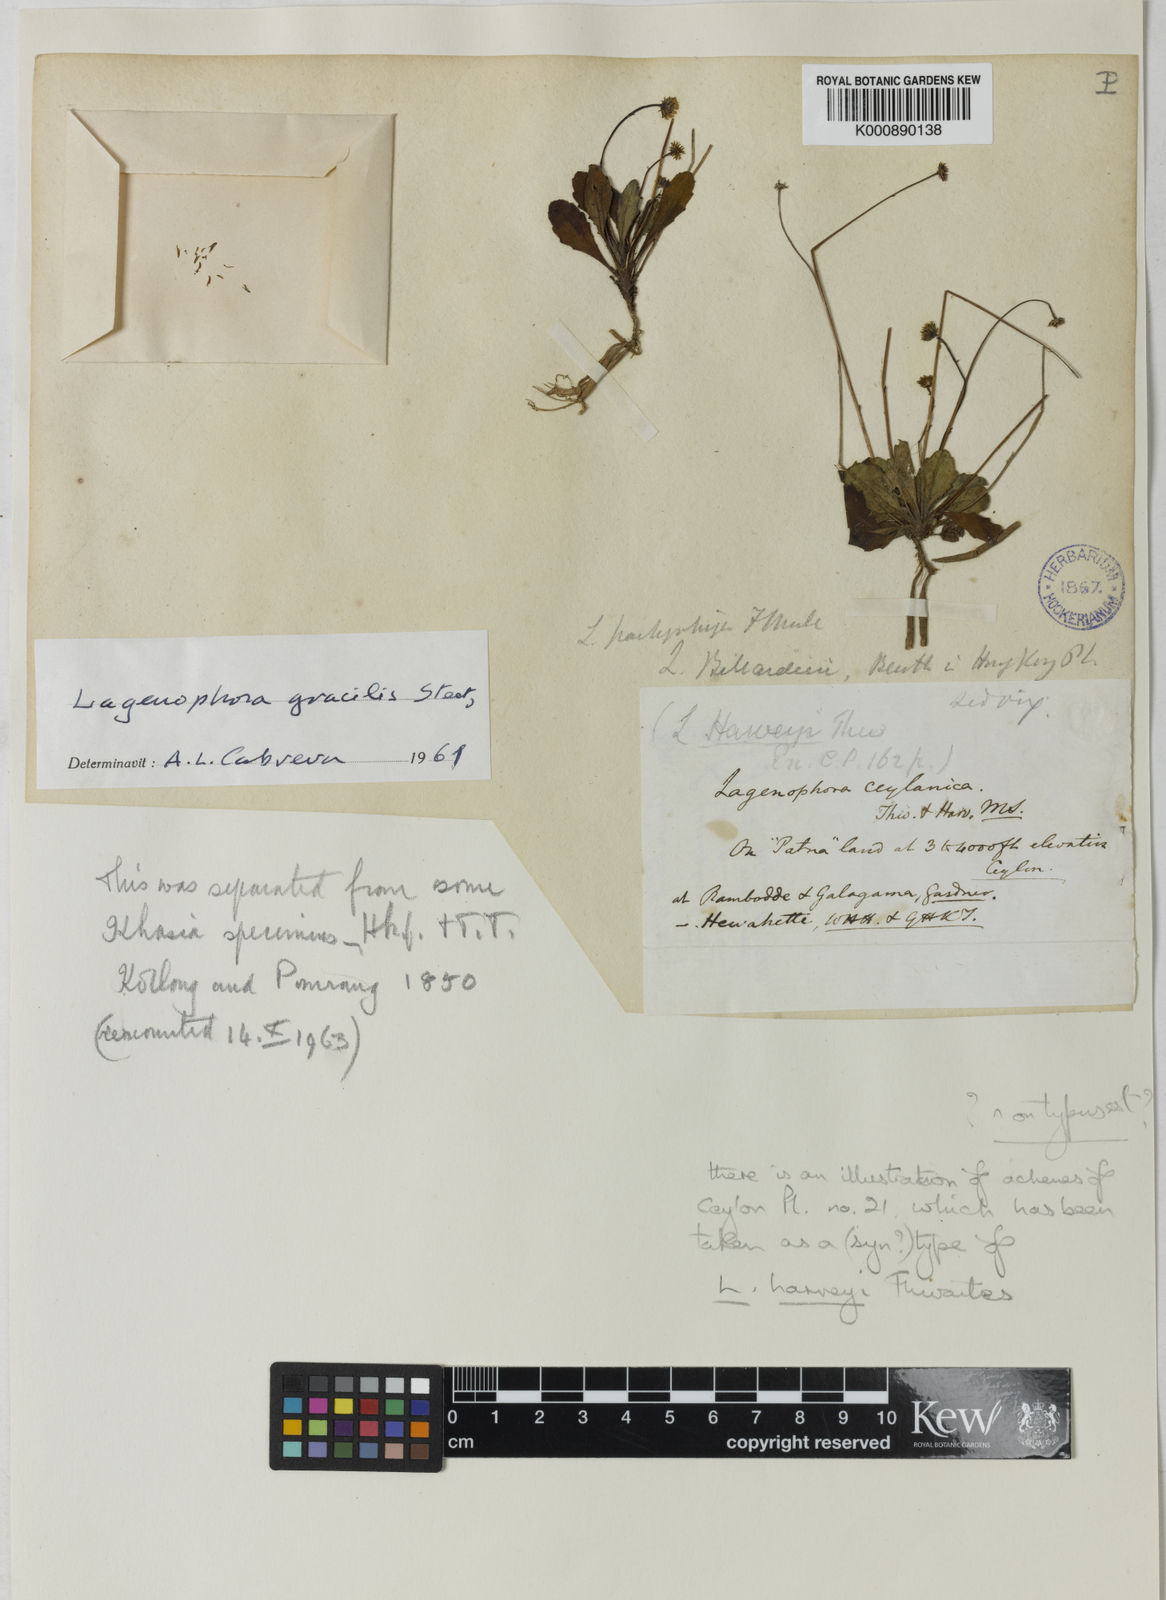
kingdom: Plantae
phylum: Tracheophyta
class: Magnoliopsida
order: Asterales
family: Asteraceae
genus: Lagenophora
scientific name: Lagenophora gracilis
